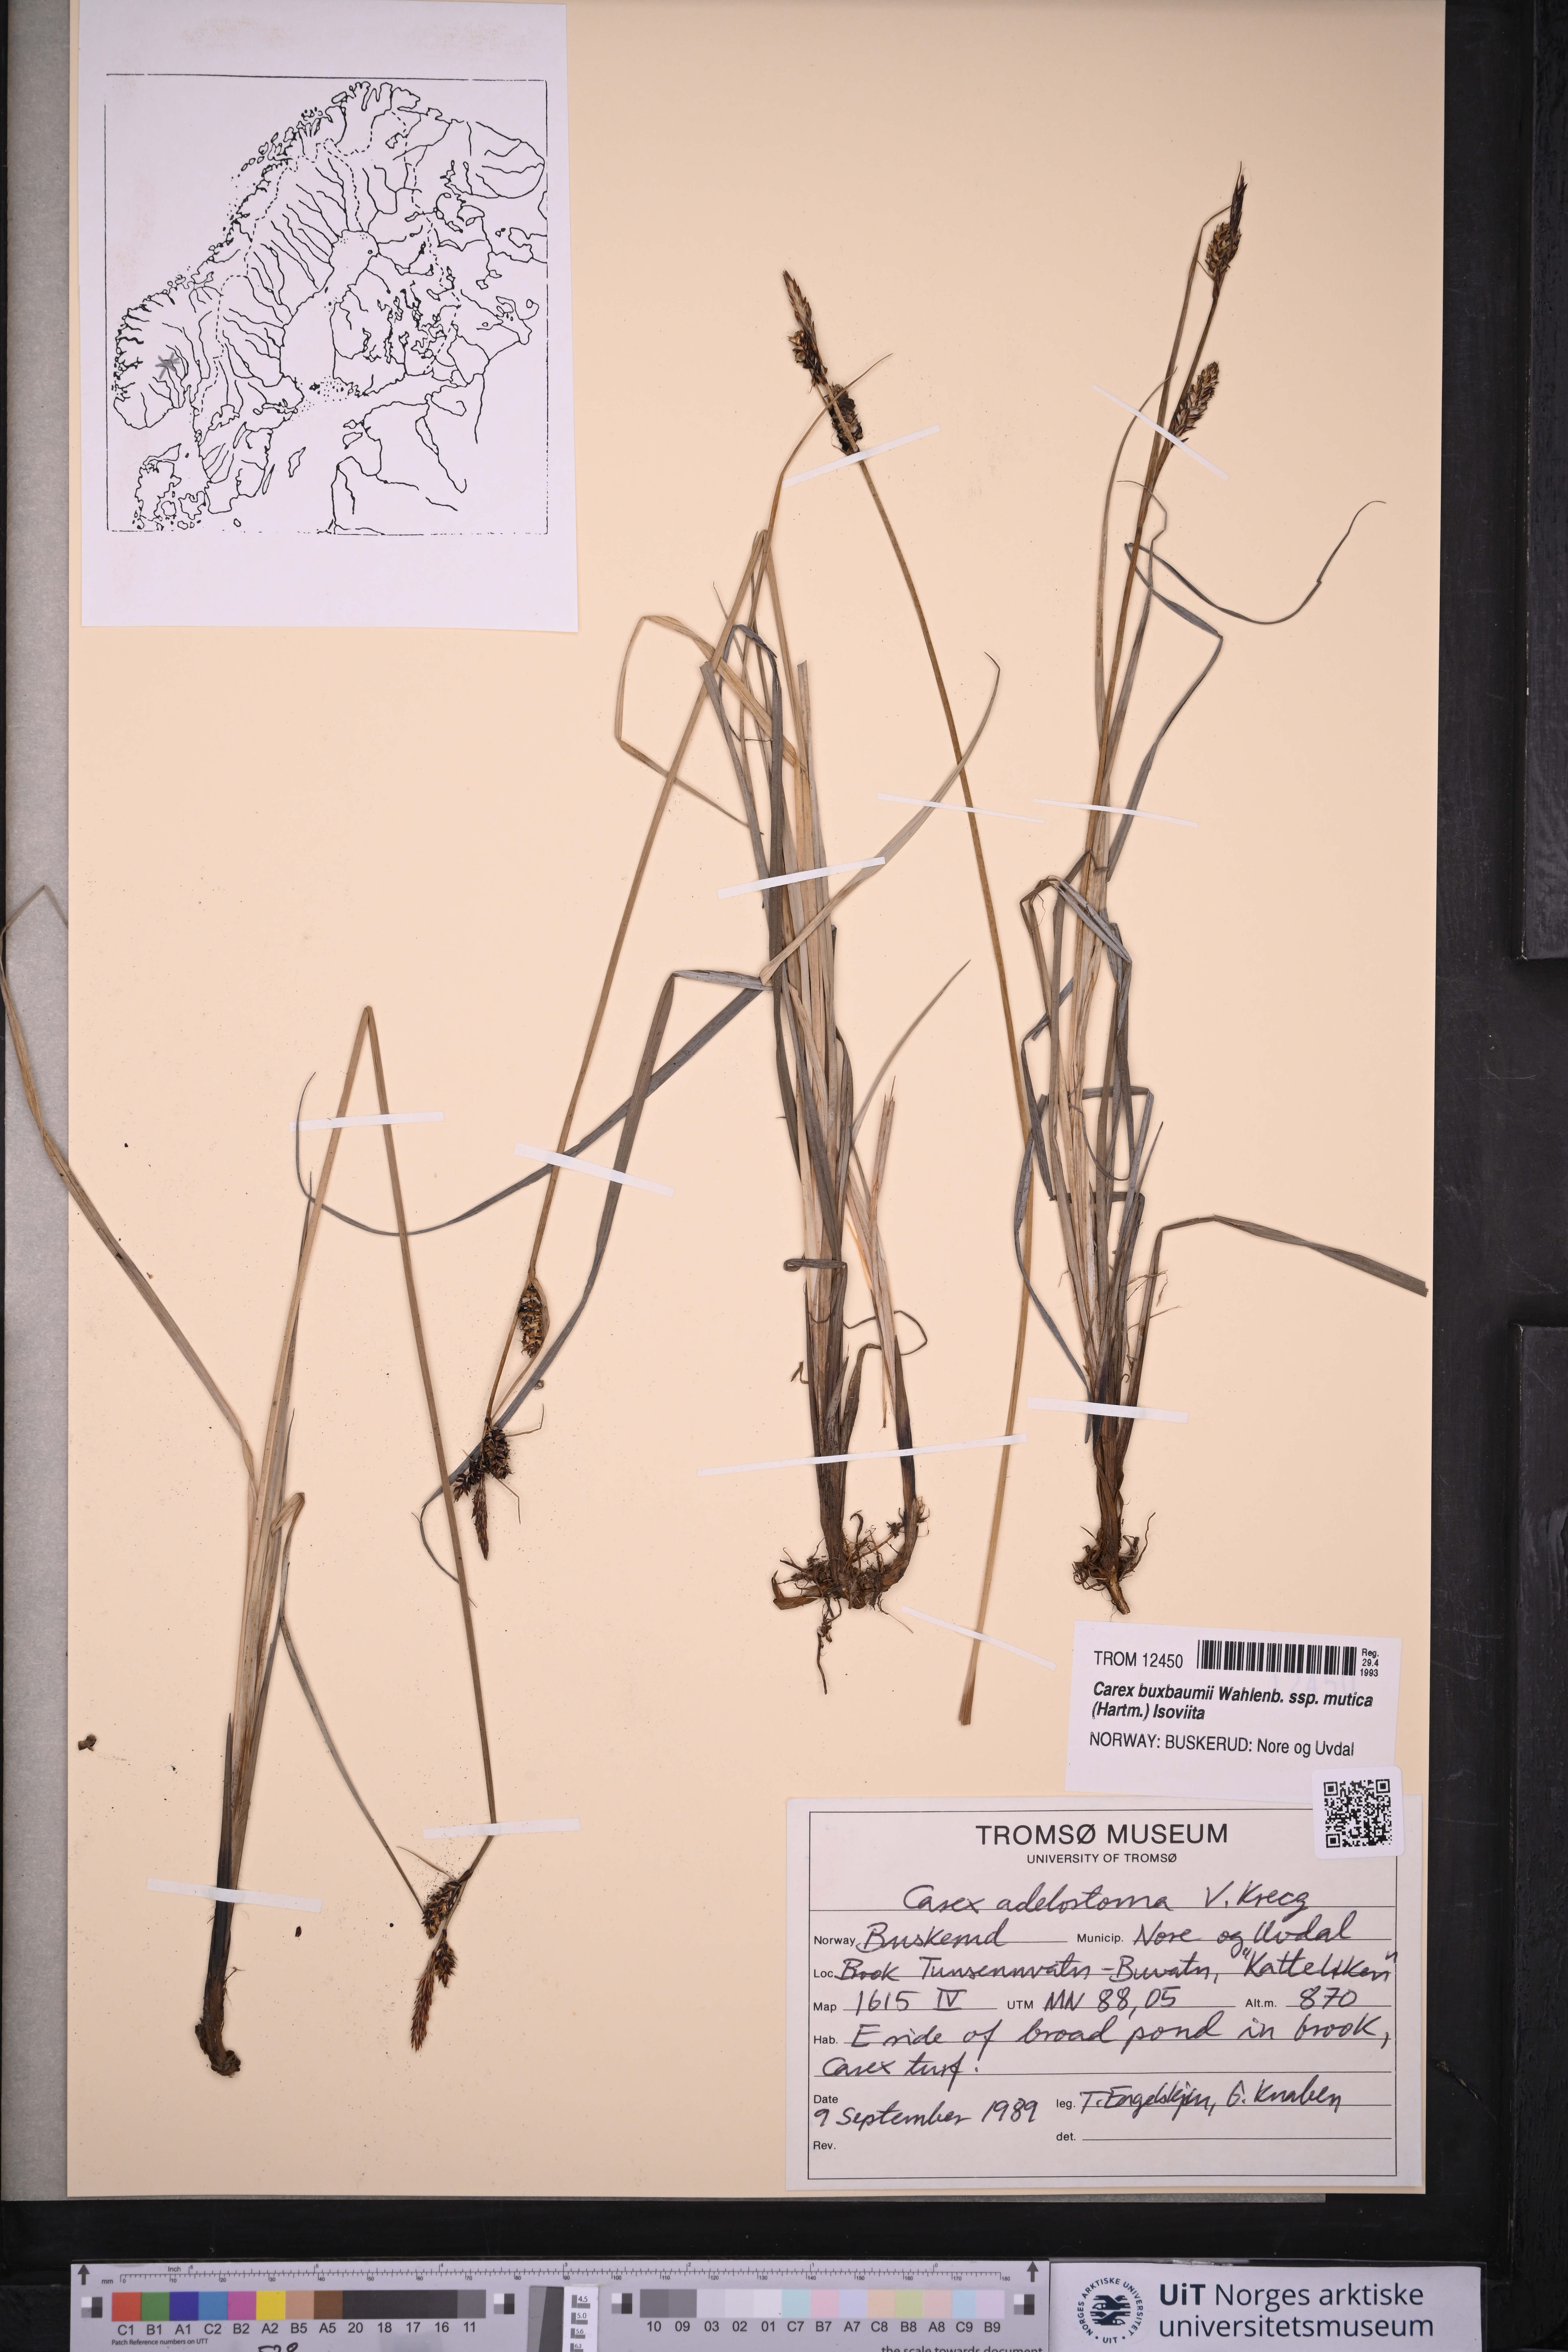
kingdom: Plantae
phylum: Tracheophyta
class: Liliopsida
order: Poales
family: Cyperaceae
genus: Carex
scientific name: Carex adelostoma
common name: Circumpolar sedge
